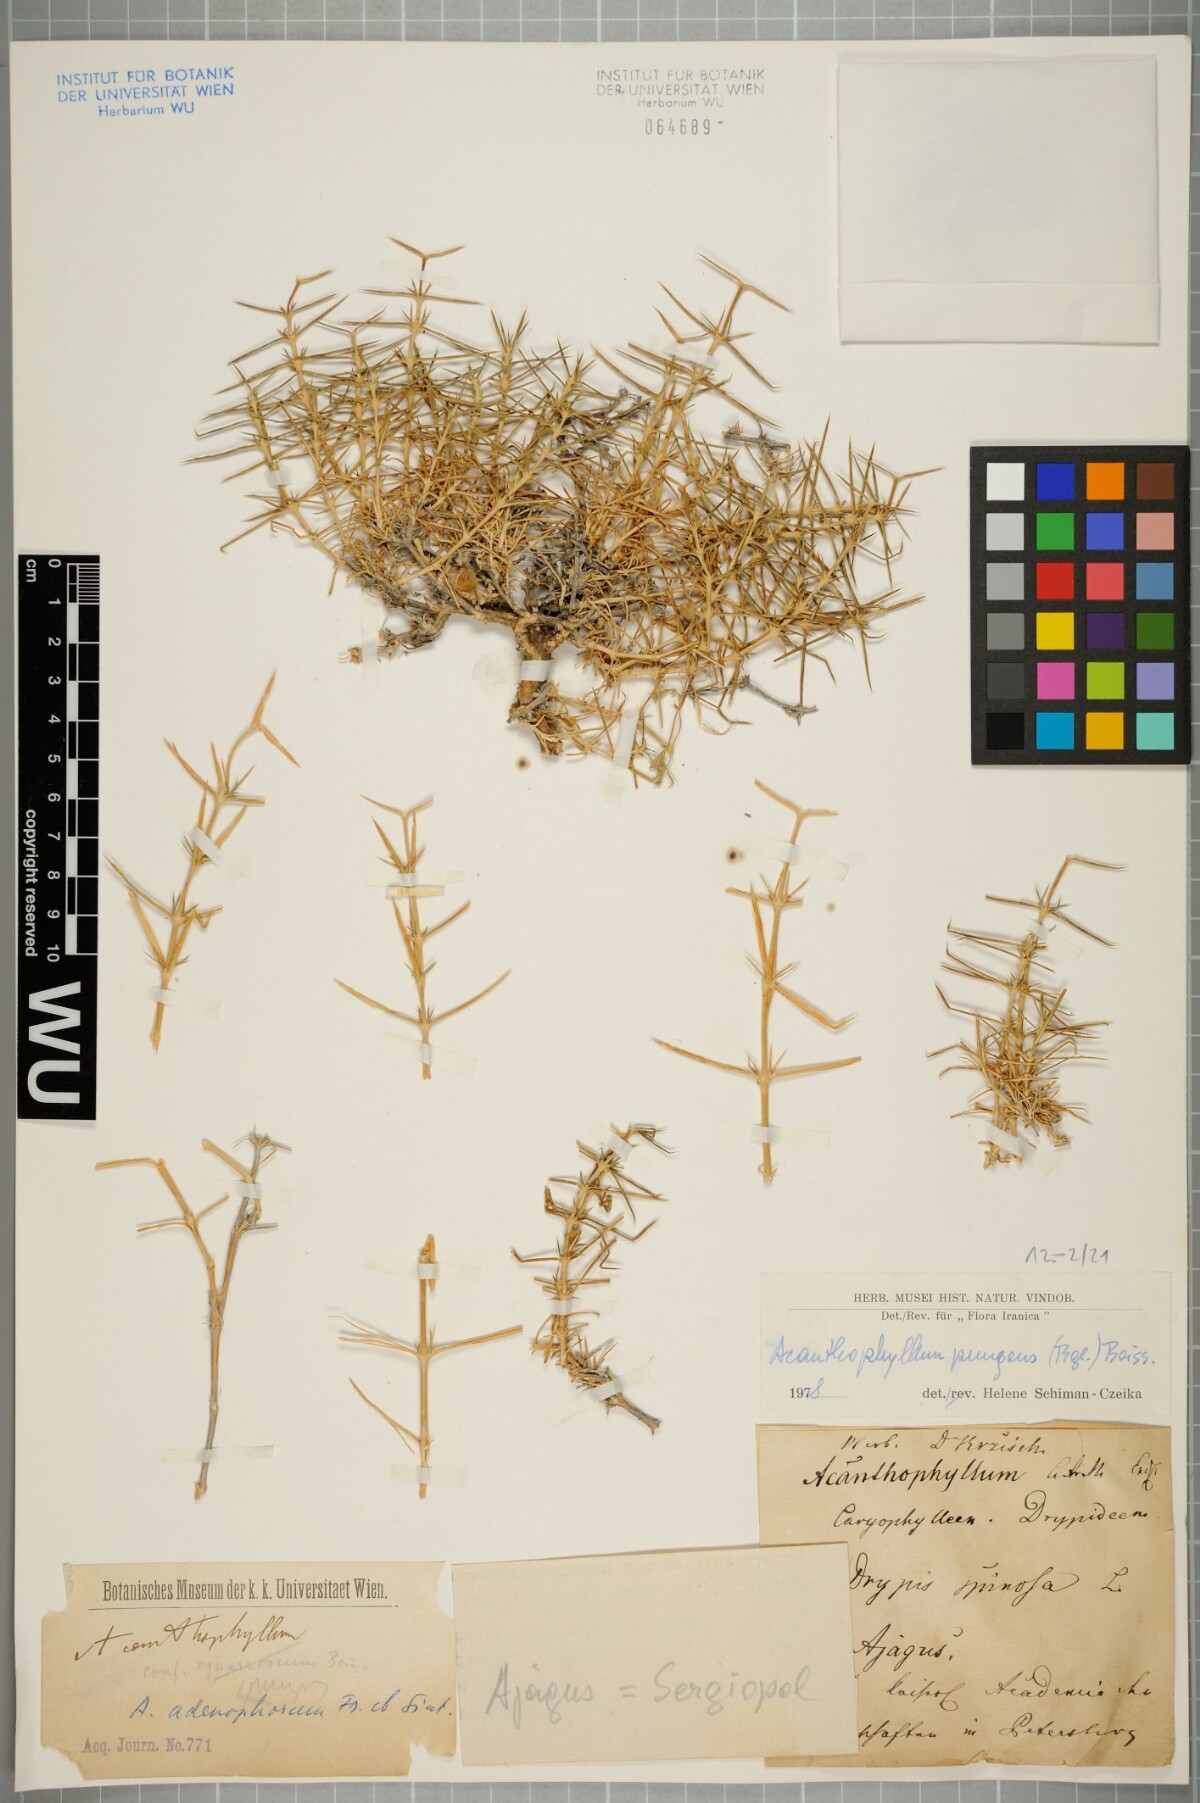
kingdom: Plantae
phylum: Tracheophyta
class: Magnoliopsida
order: Caryophyllales
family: Caryophyllaceae
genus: Acanthophyllum
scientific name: Acanthophyllum pungens
